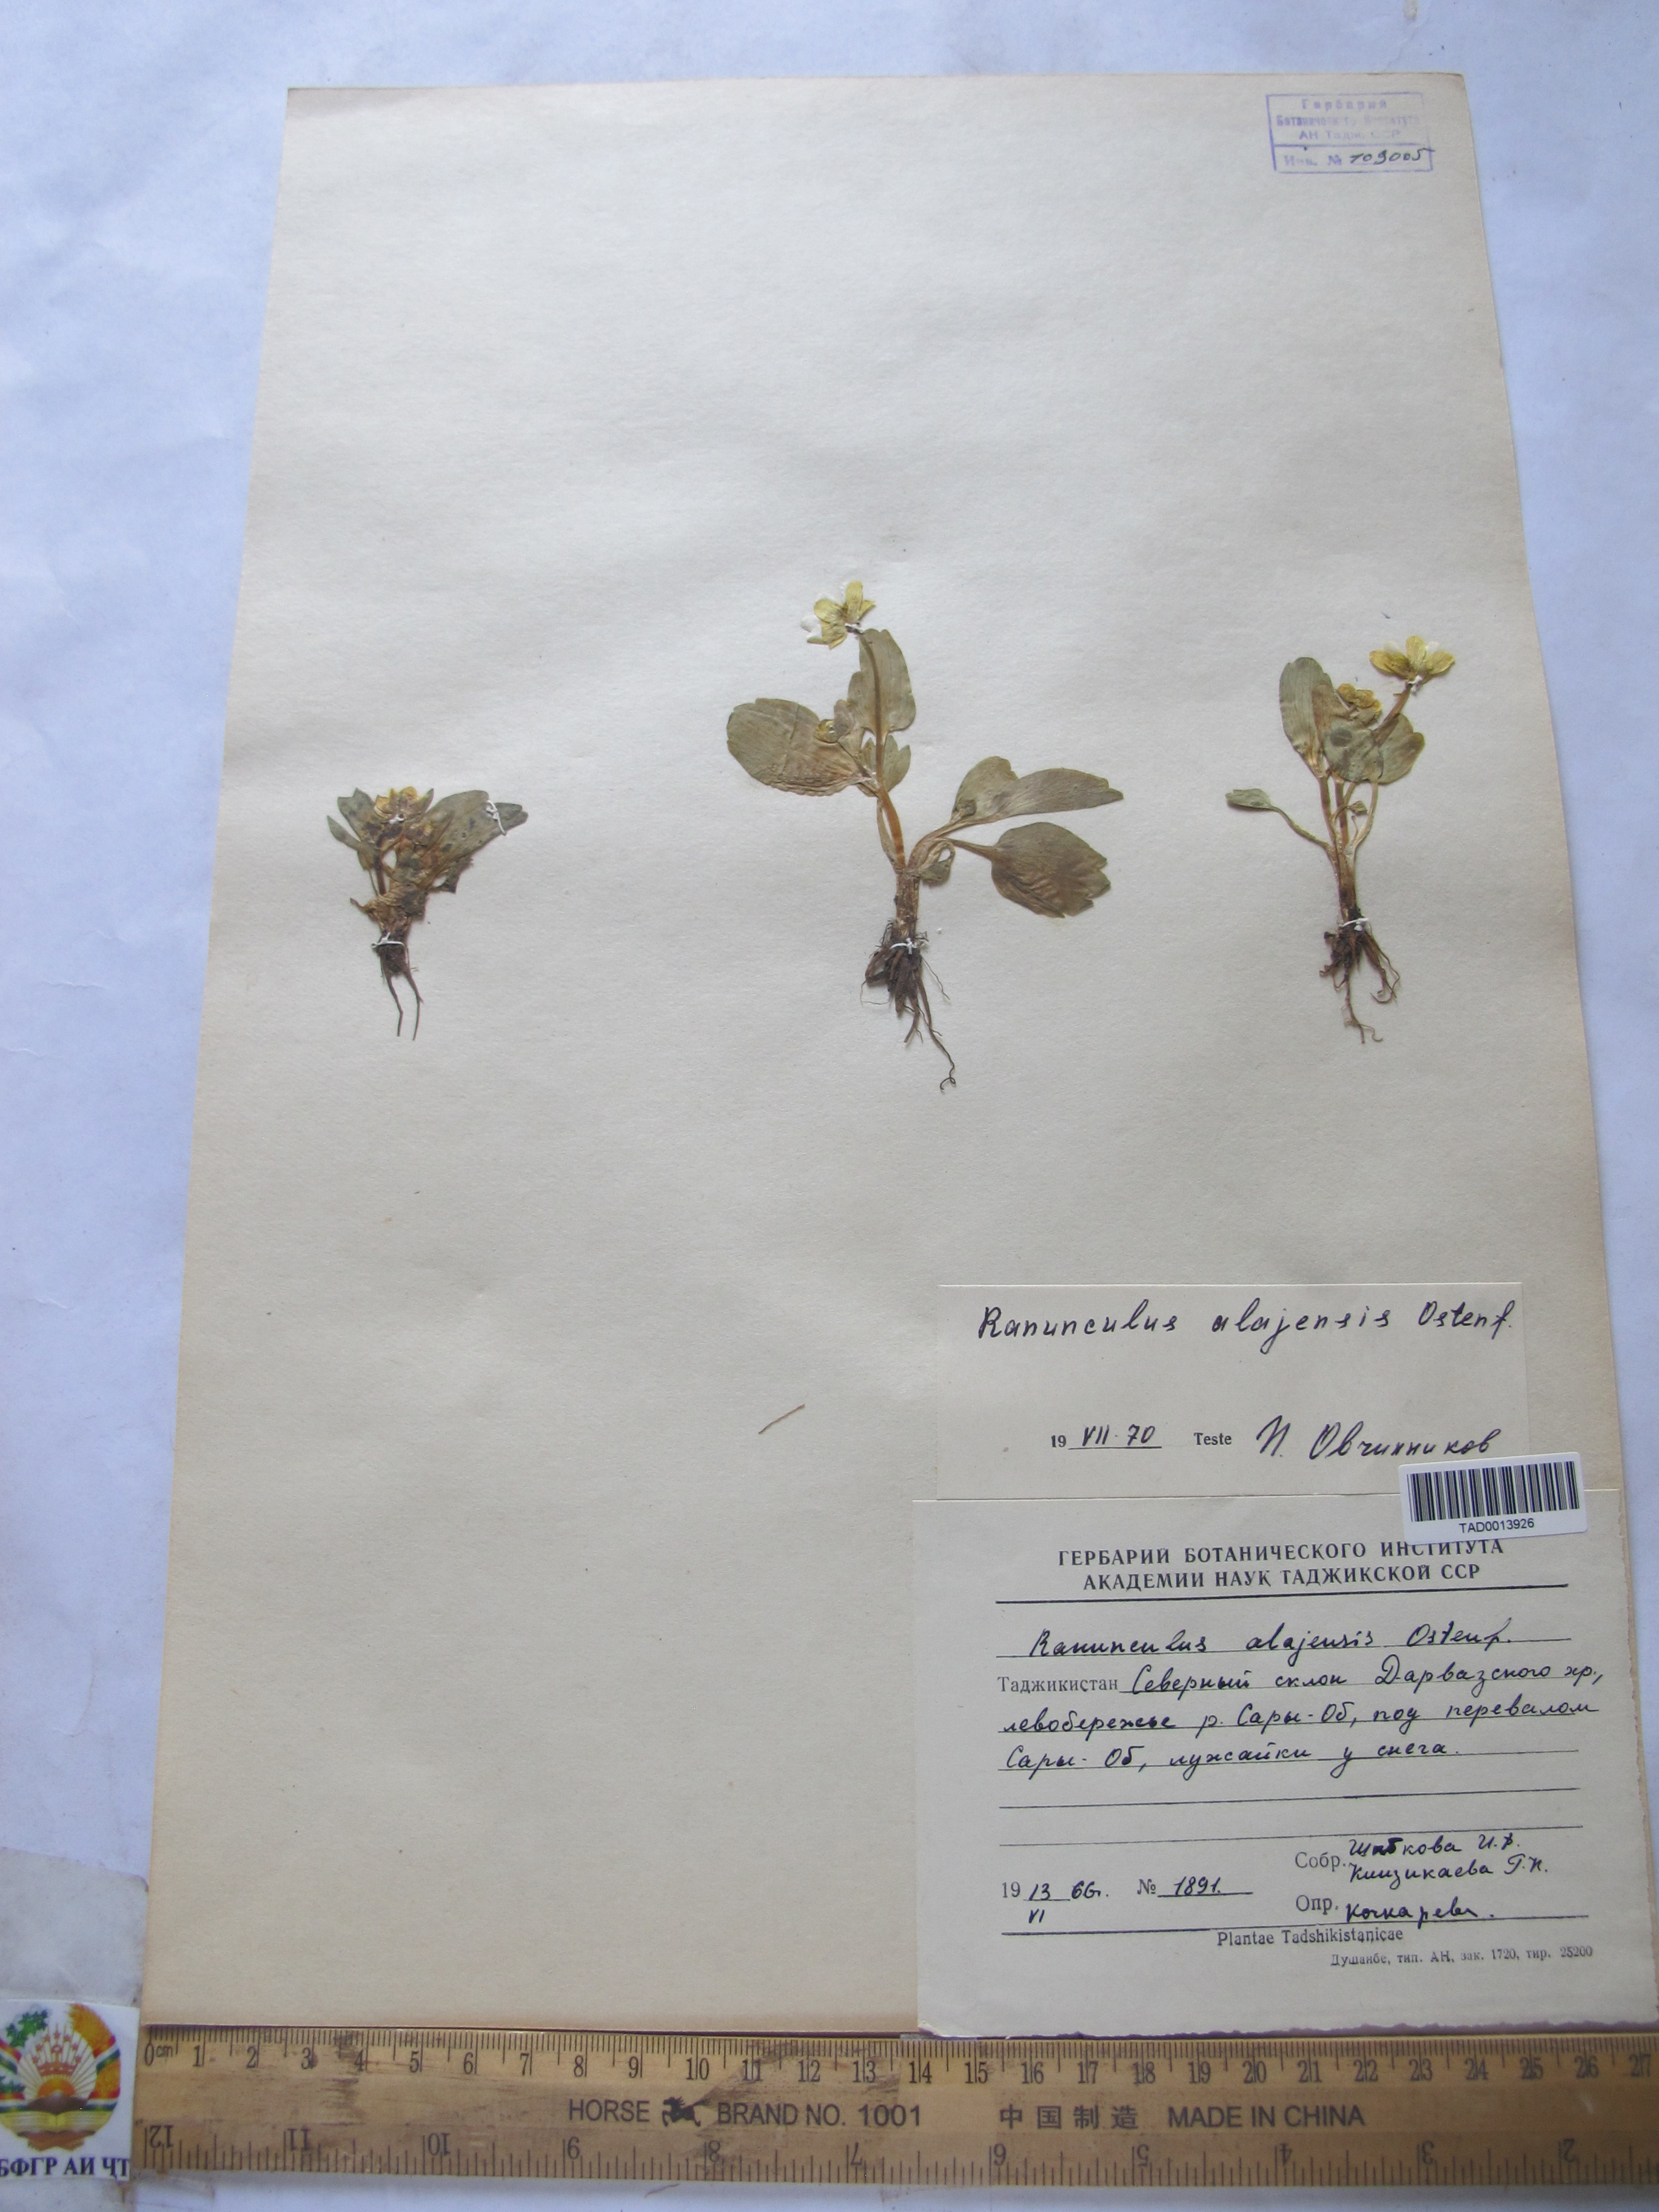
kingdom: Plantae
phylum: Tracheophyta
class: Magnoliopsida
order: Ranunculales
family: Ranunculaceae
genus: Ranunculus
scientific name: Ranunculus alaiensis
